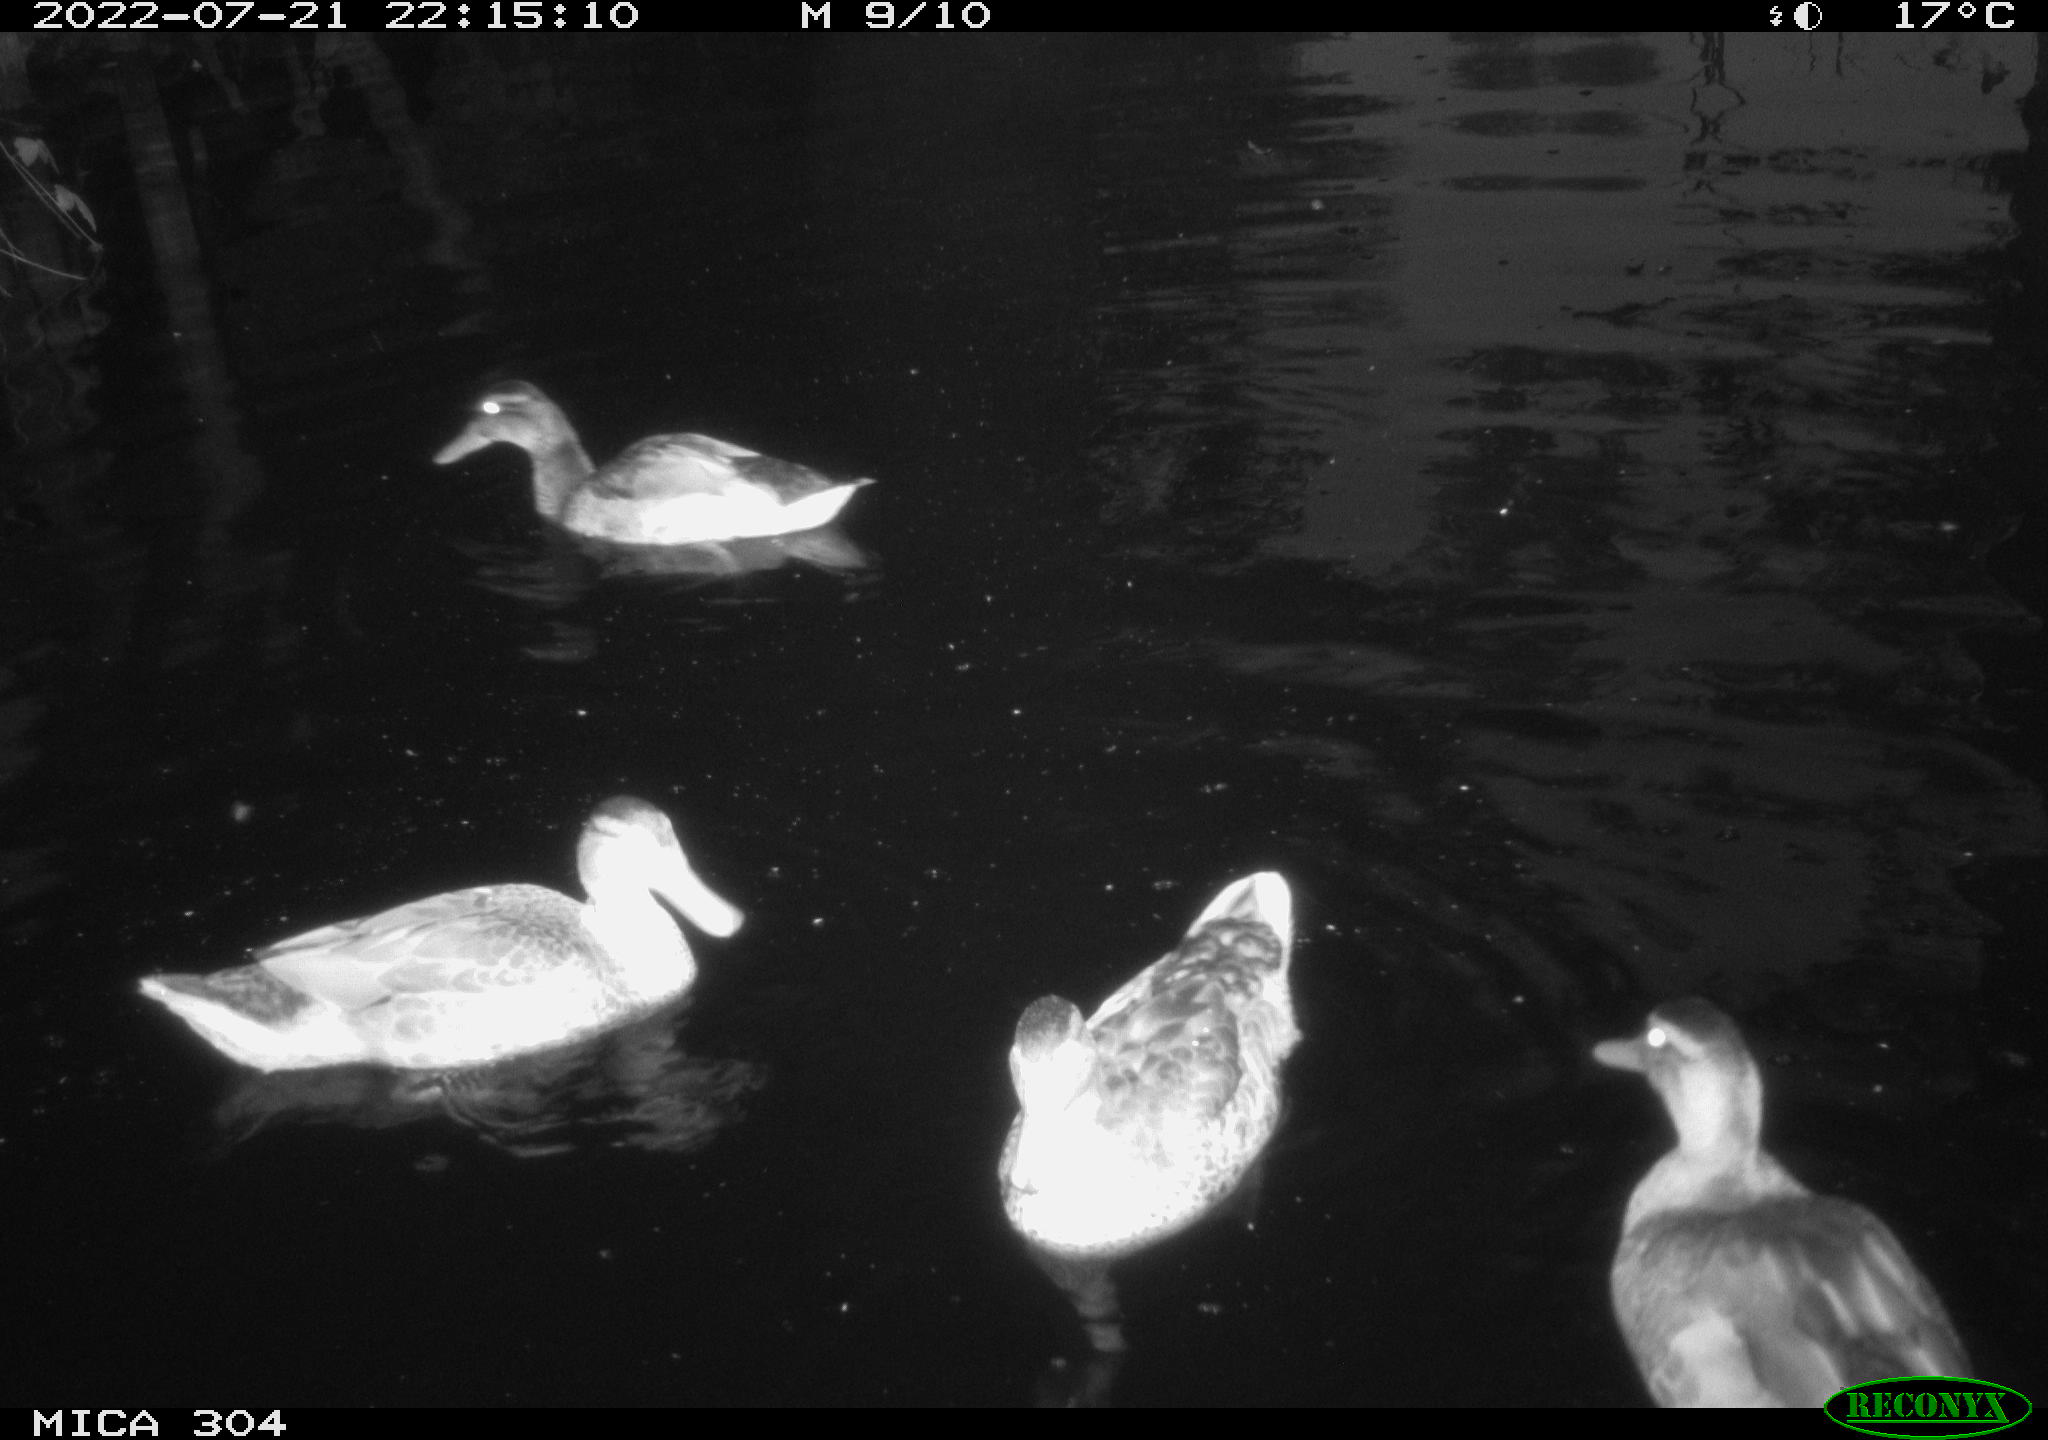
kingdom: Animalia
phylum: Chordata
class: Mammalia
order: Rodentia
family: Cricetidae
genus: Ondatra
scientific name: Ondatra zibethicus
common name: Muskrat
